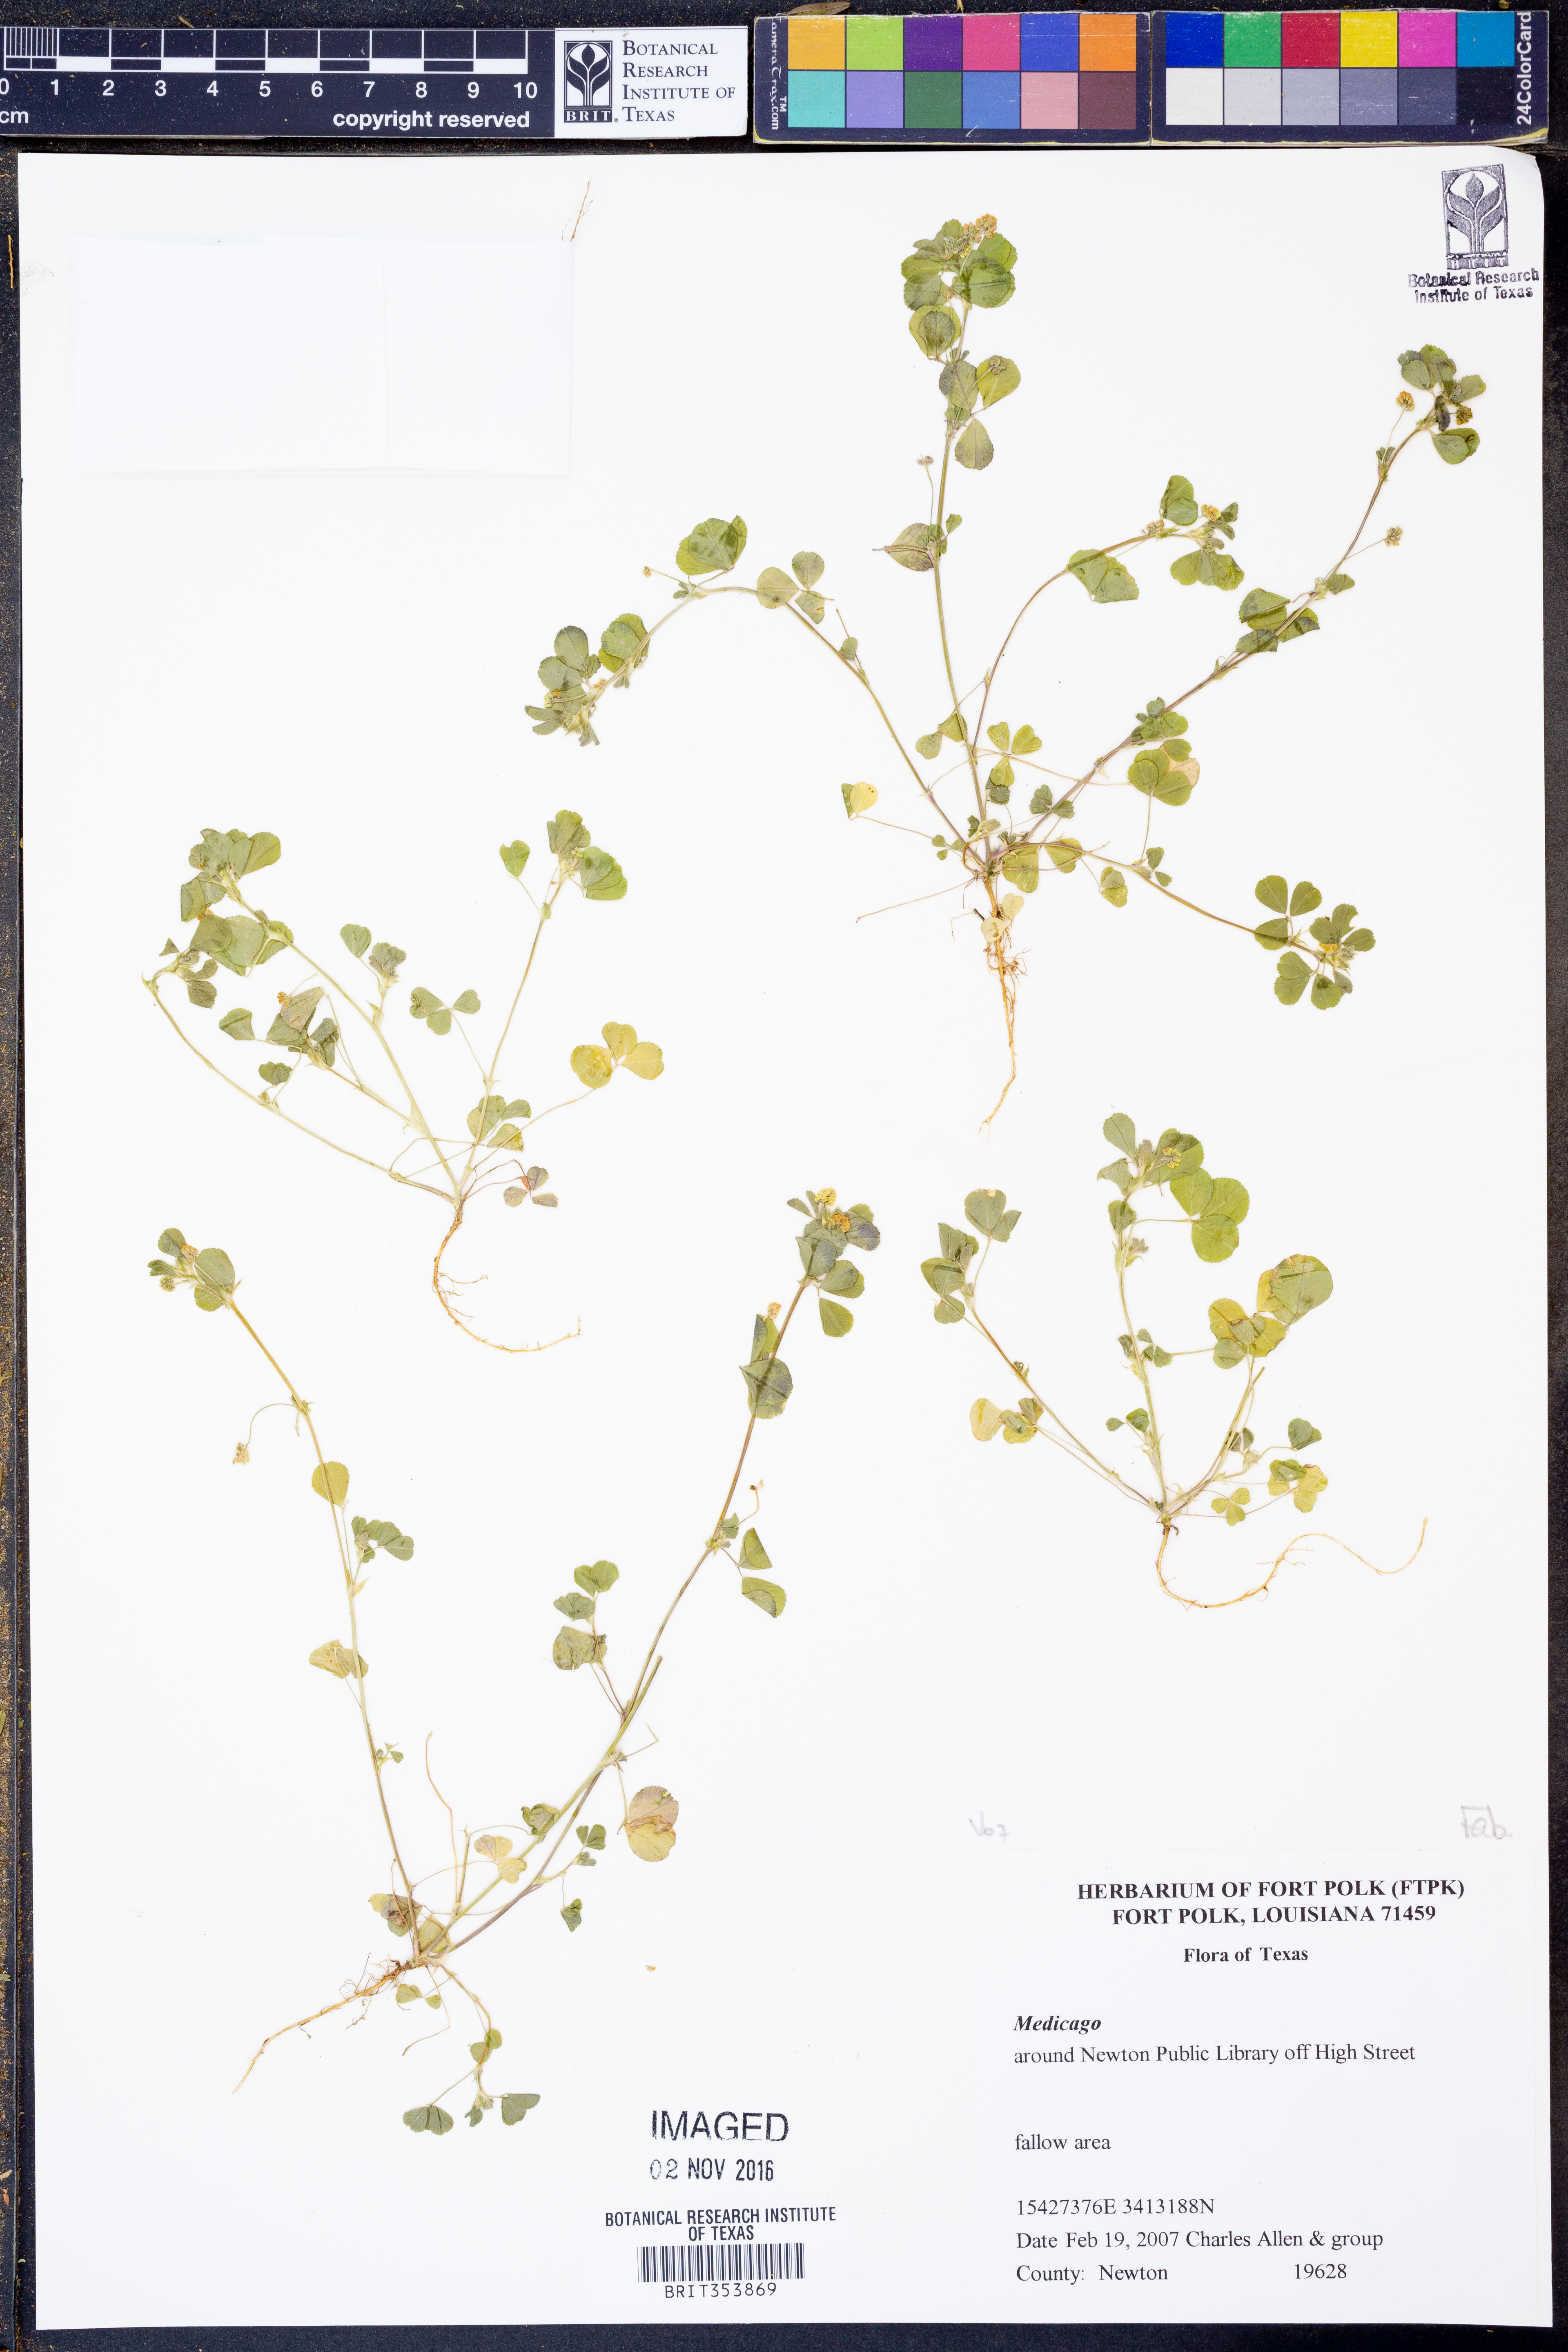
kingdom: Plantae
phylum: Tracheophyta
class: Magnoliopsida
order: Fabales
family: Fabaceae
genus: Medicago
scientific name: Medicago
